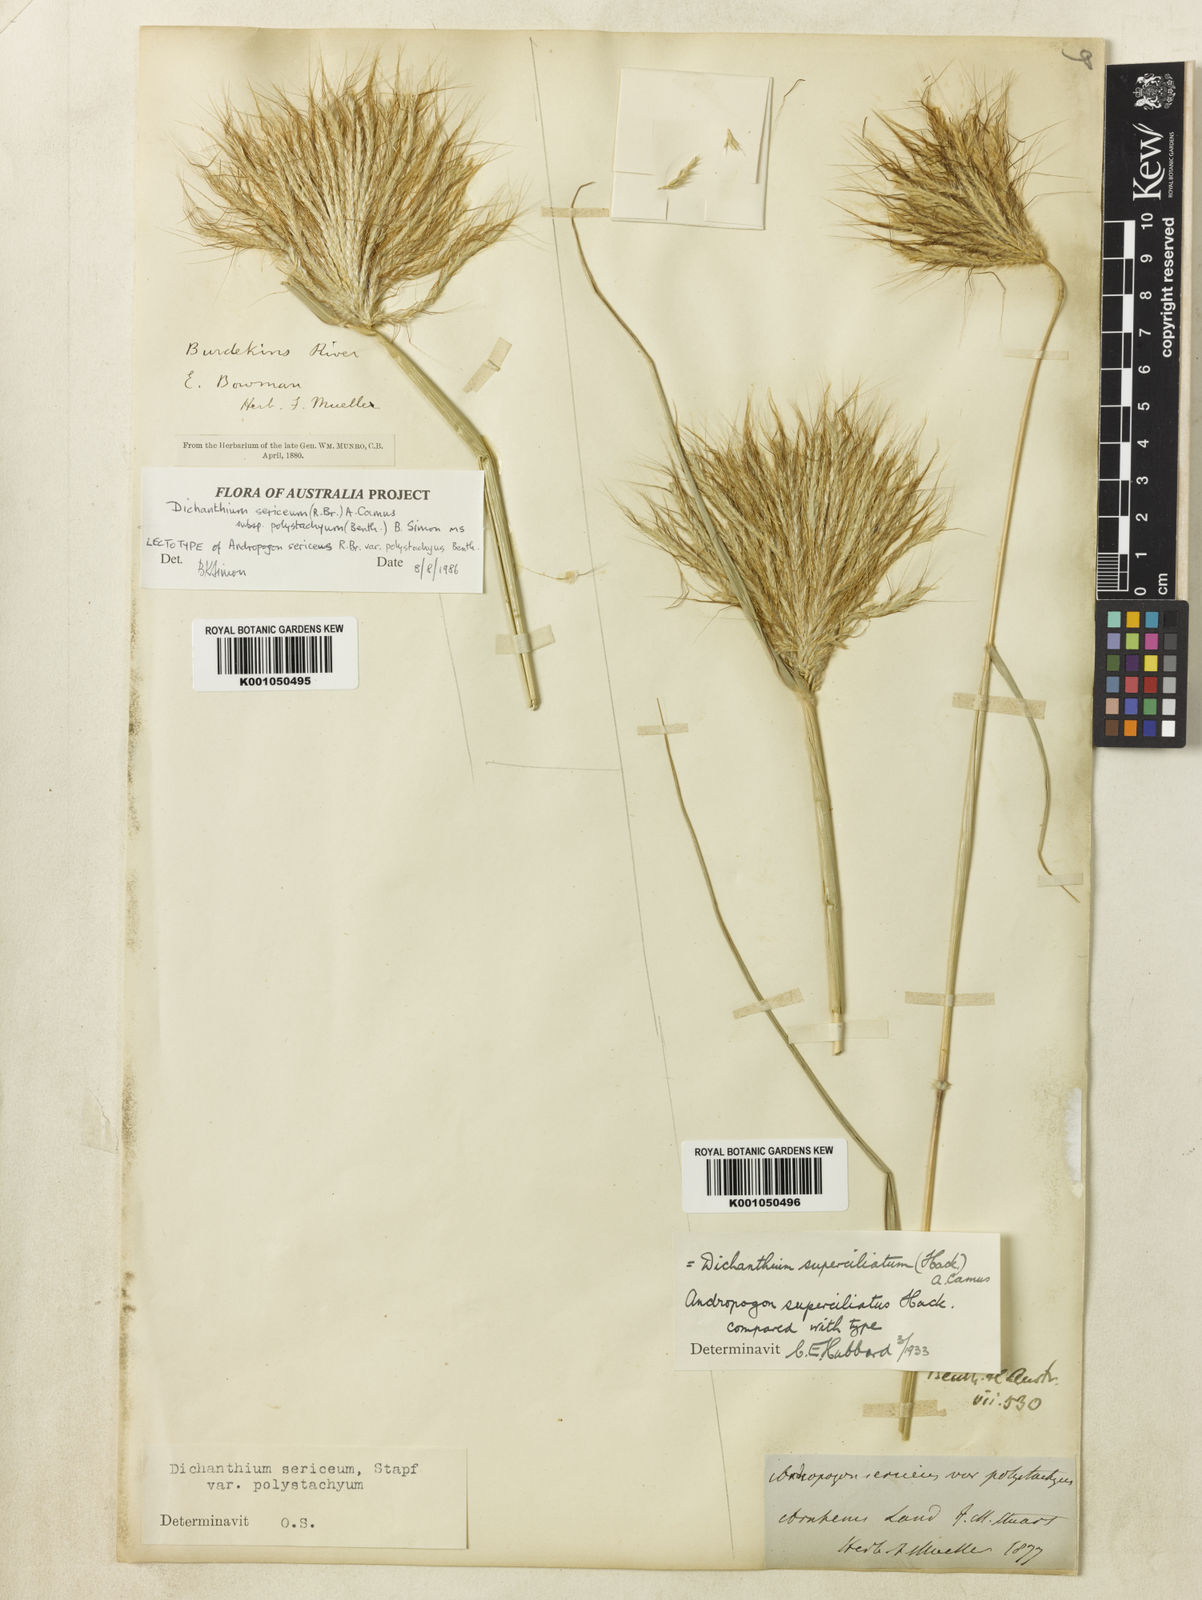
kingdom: Plantae
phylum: Tracheophyta
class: Liliopsida
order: Poales
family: Poaceae
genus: Dichanthium
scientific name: Dichanthium sericeum
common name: Silky bluestem
